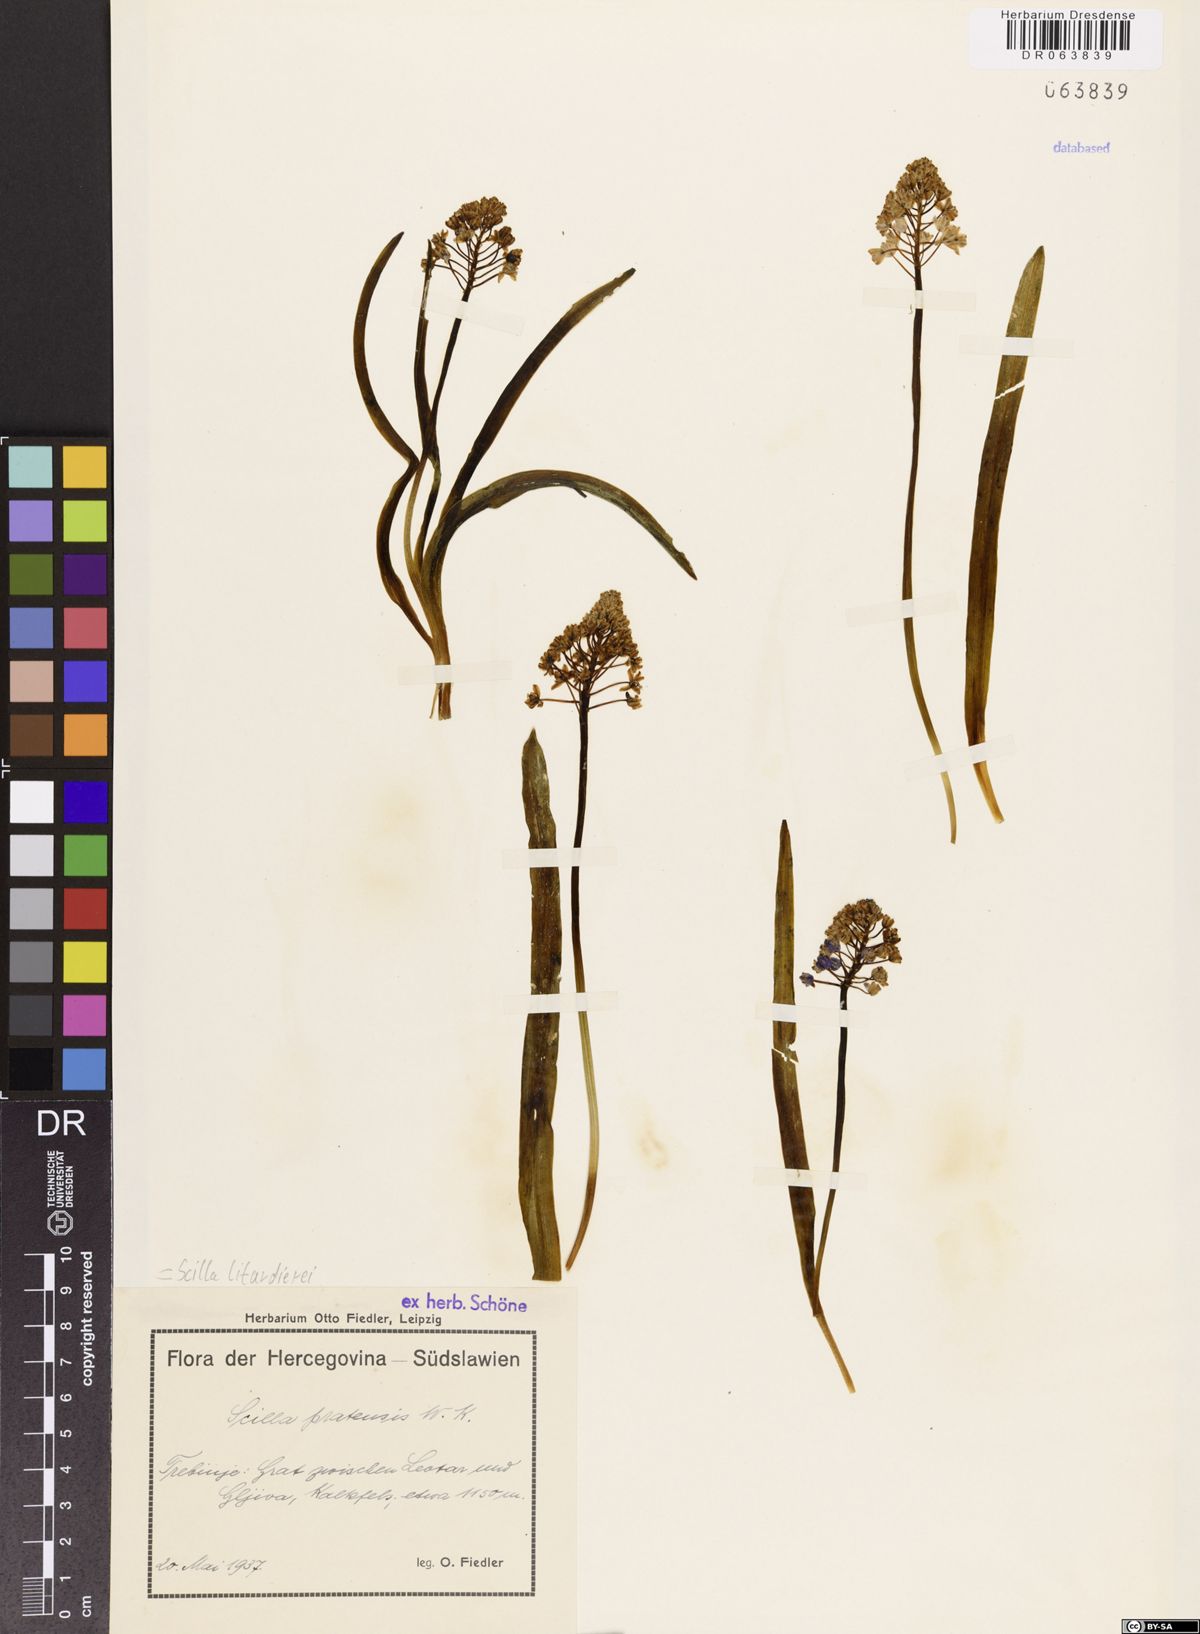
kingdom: Plantae
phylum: Tracheophyta
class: Liliopsida
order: Asparagales
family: Asparagaceae
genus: Scilla
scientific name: Scilla litardierei
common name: Amethyst meadow squill
